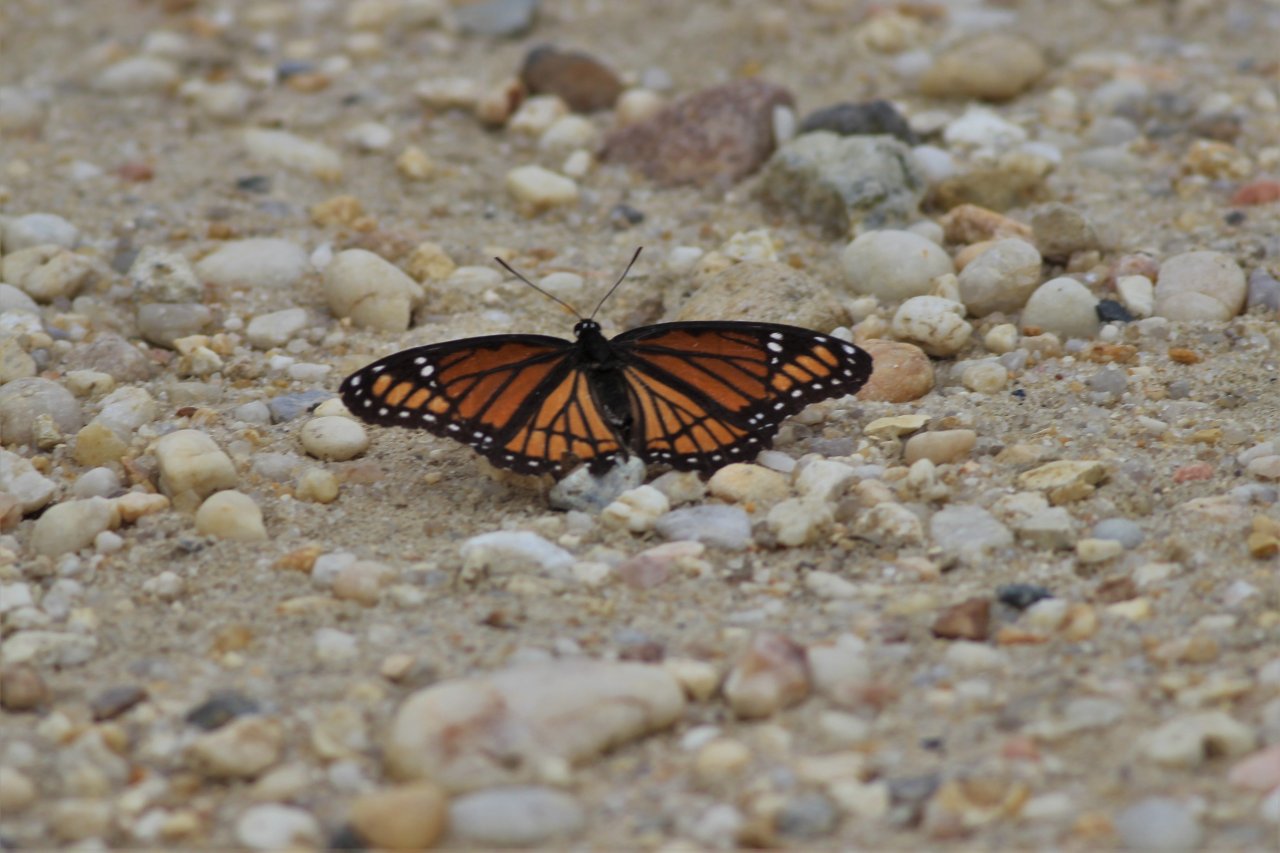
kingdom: Animalia
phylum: Arthropoda
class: Insecta
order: Lepidoptera
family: Nymphalidae
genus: Limenitis
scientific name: Limenitis archippus
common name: Viceroy
